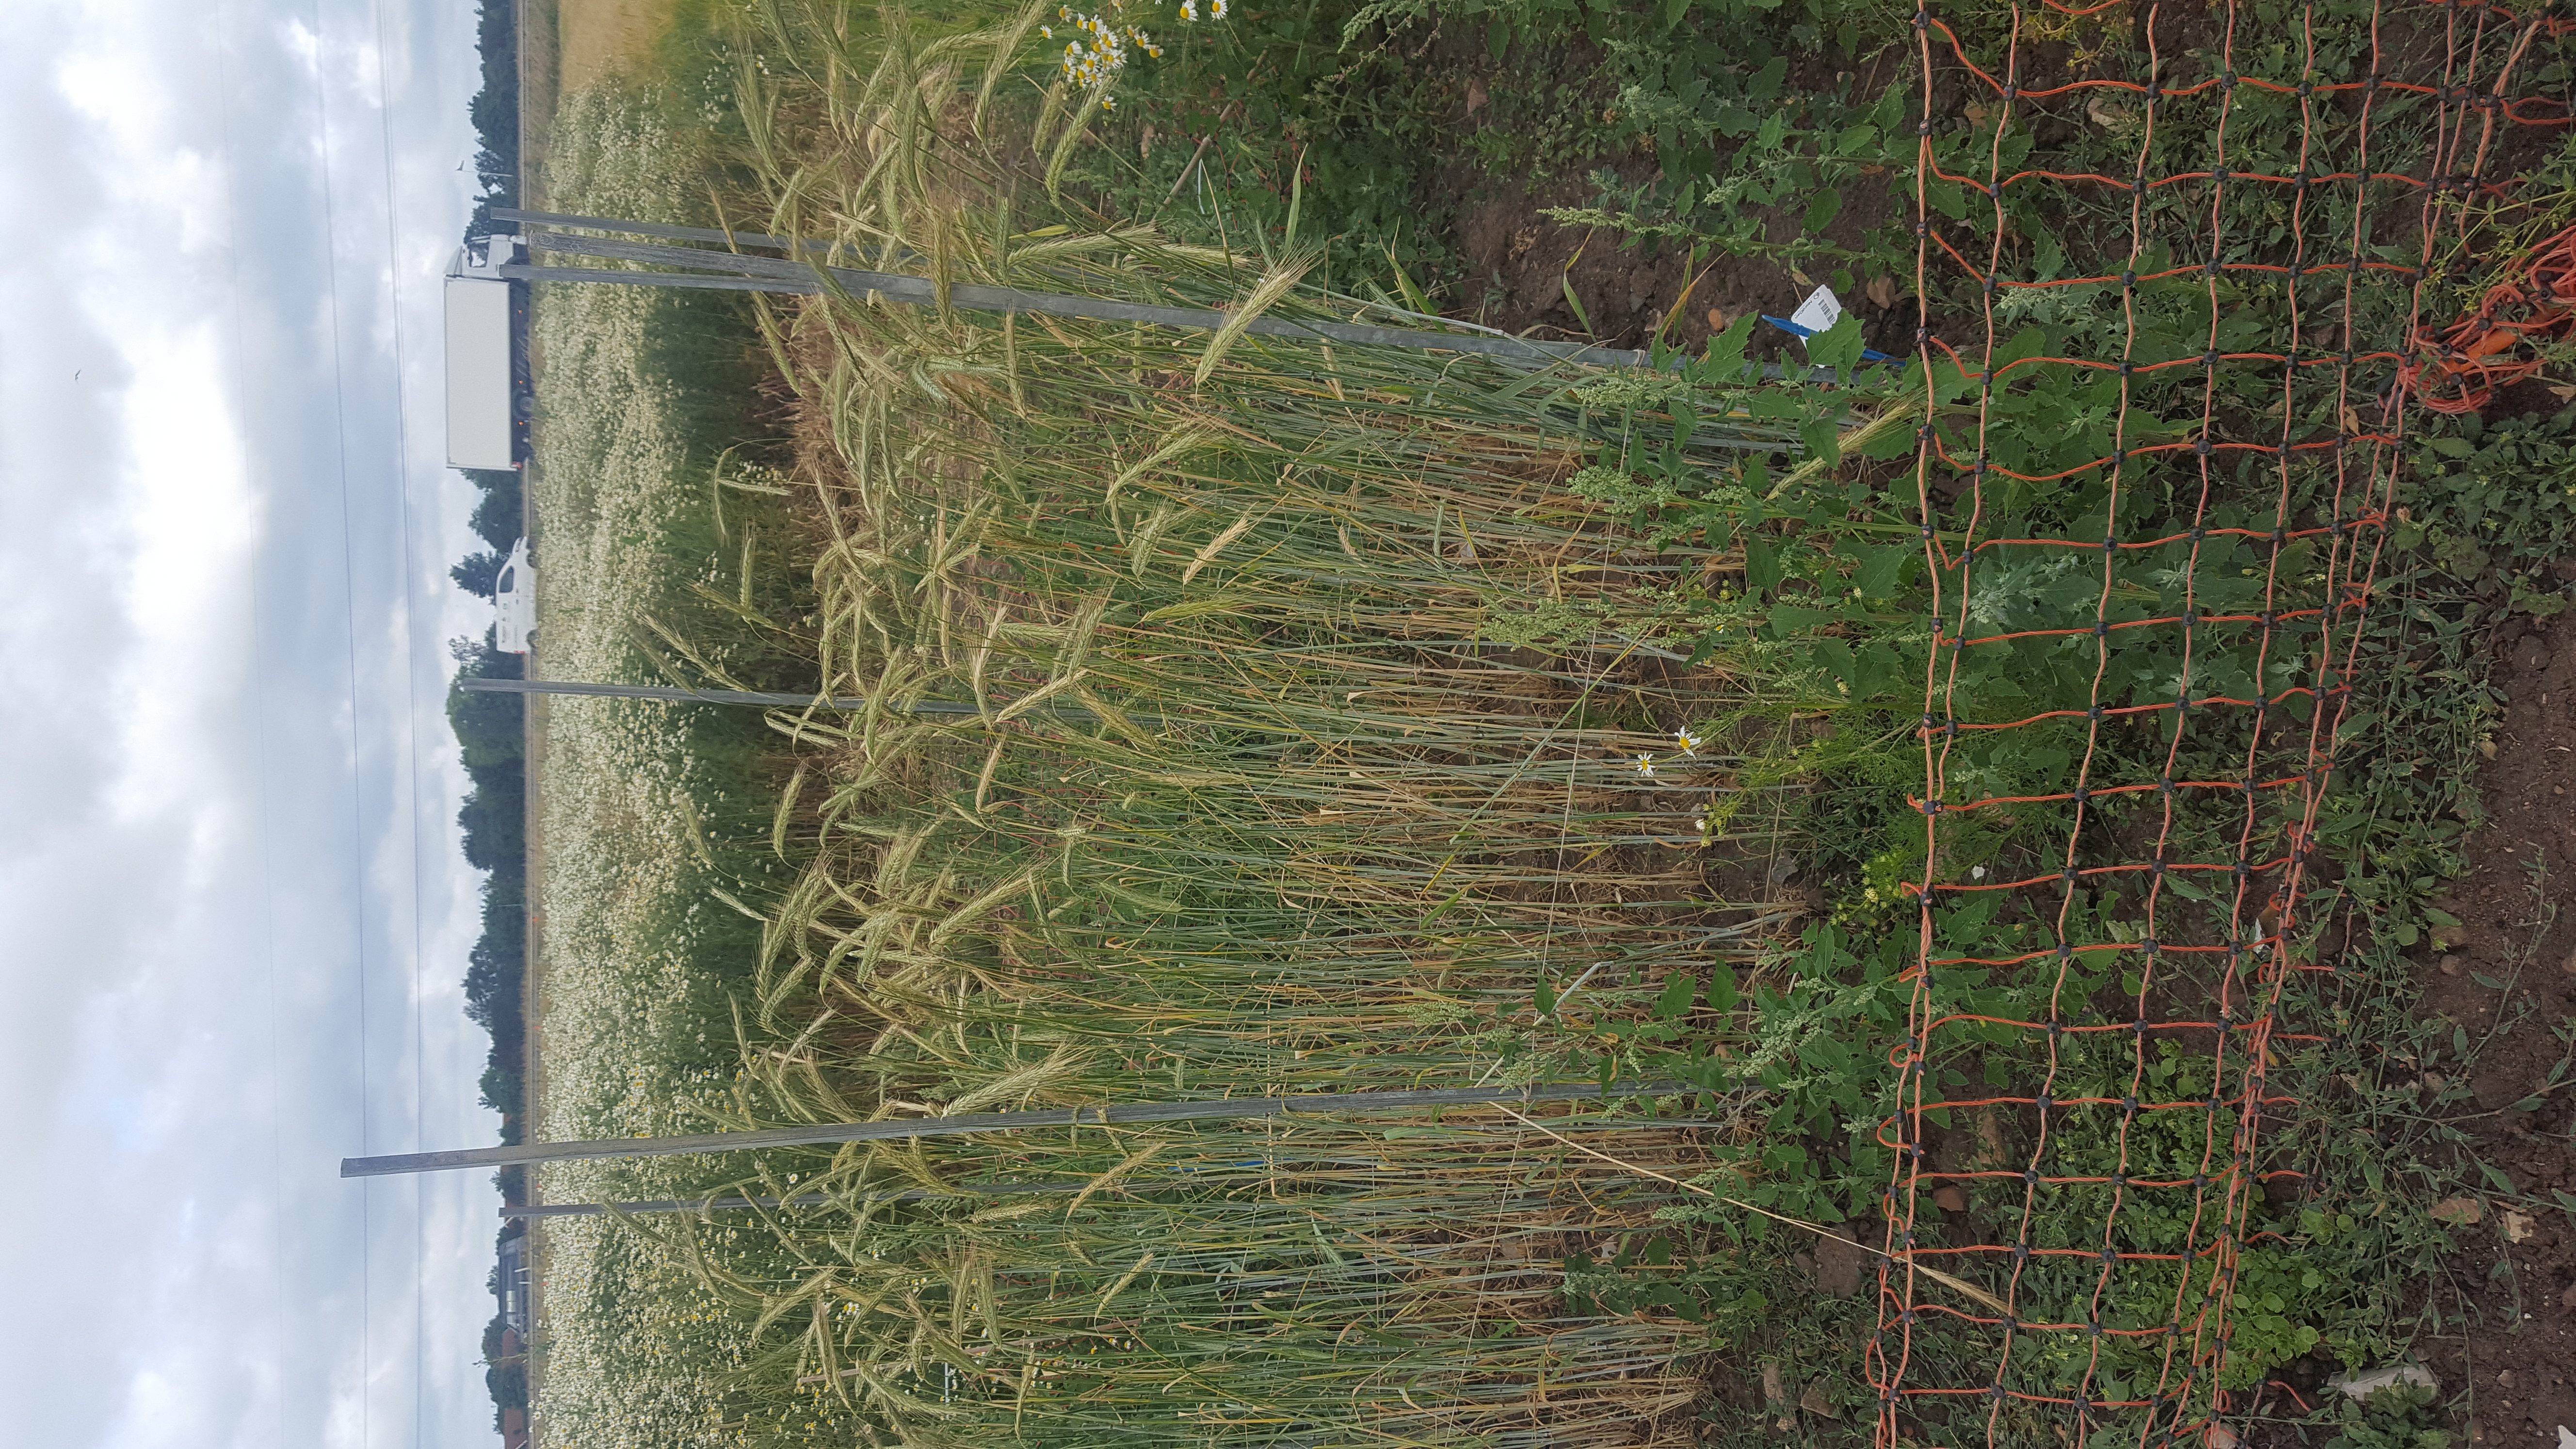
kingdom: Plantae
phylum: Tracheophyta
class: Liliopsida
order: Poales
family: Poaceae
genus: Secale
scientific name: Secale cereale
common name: Rye
